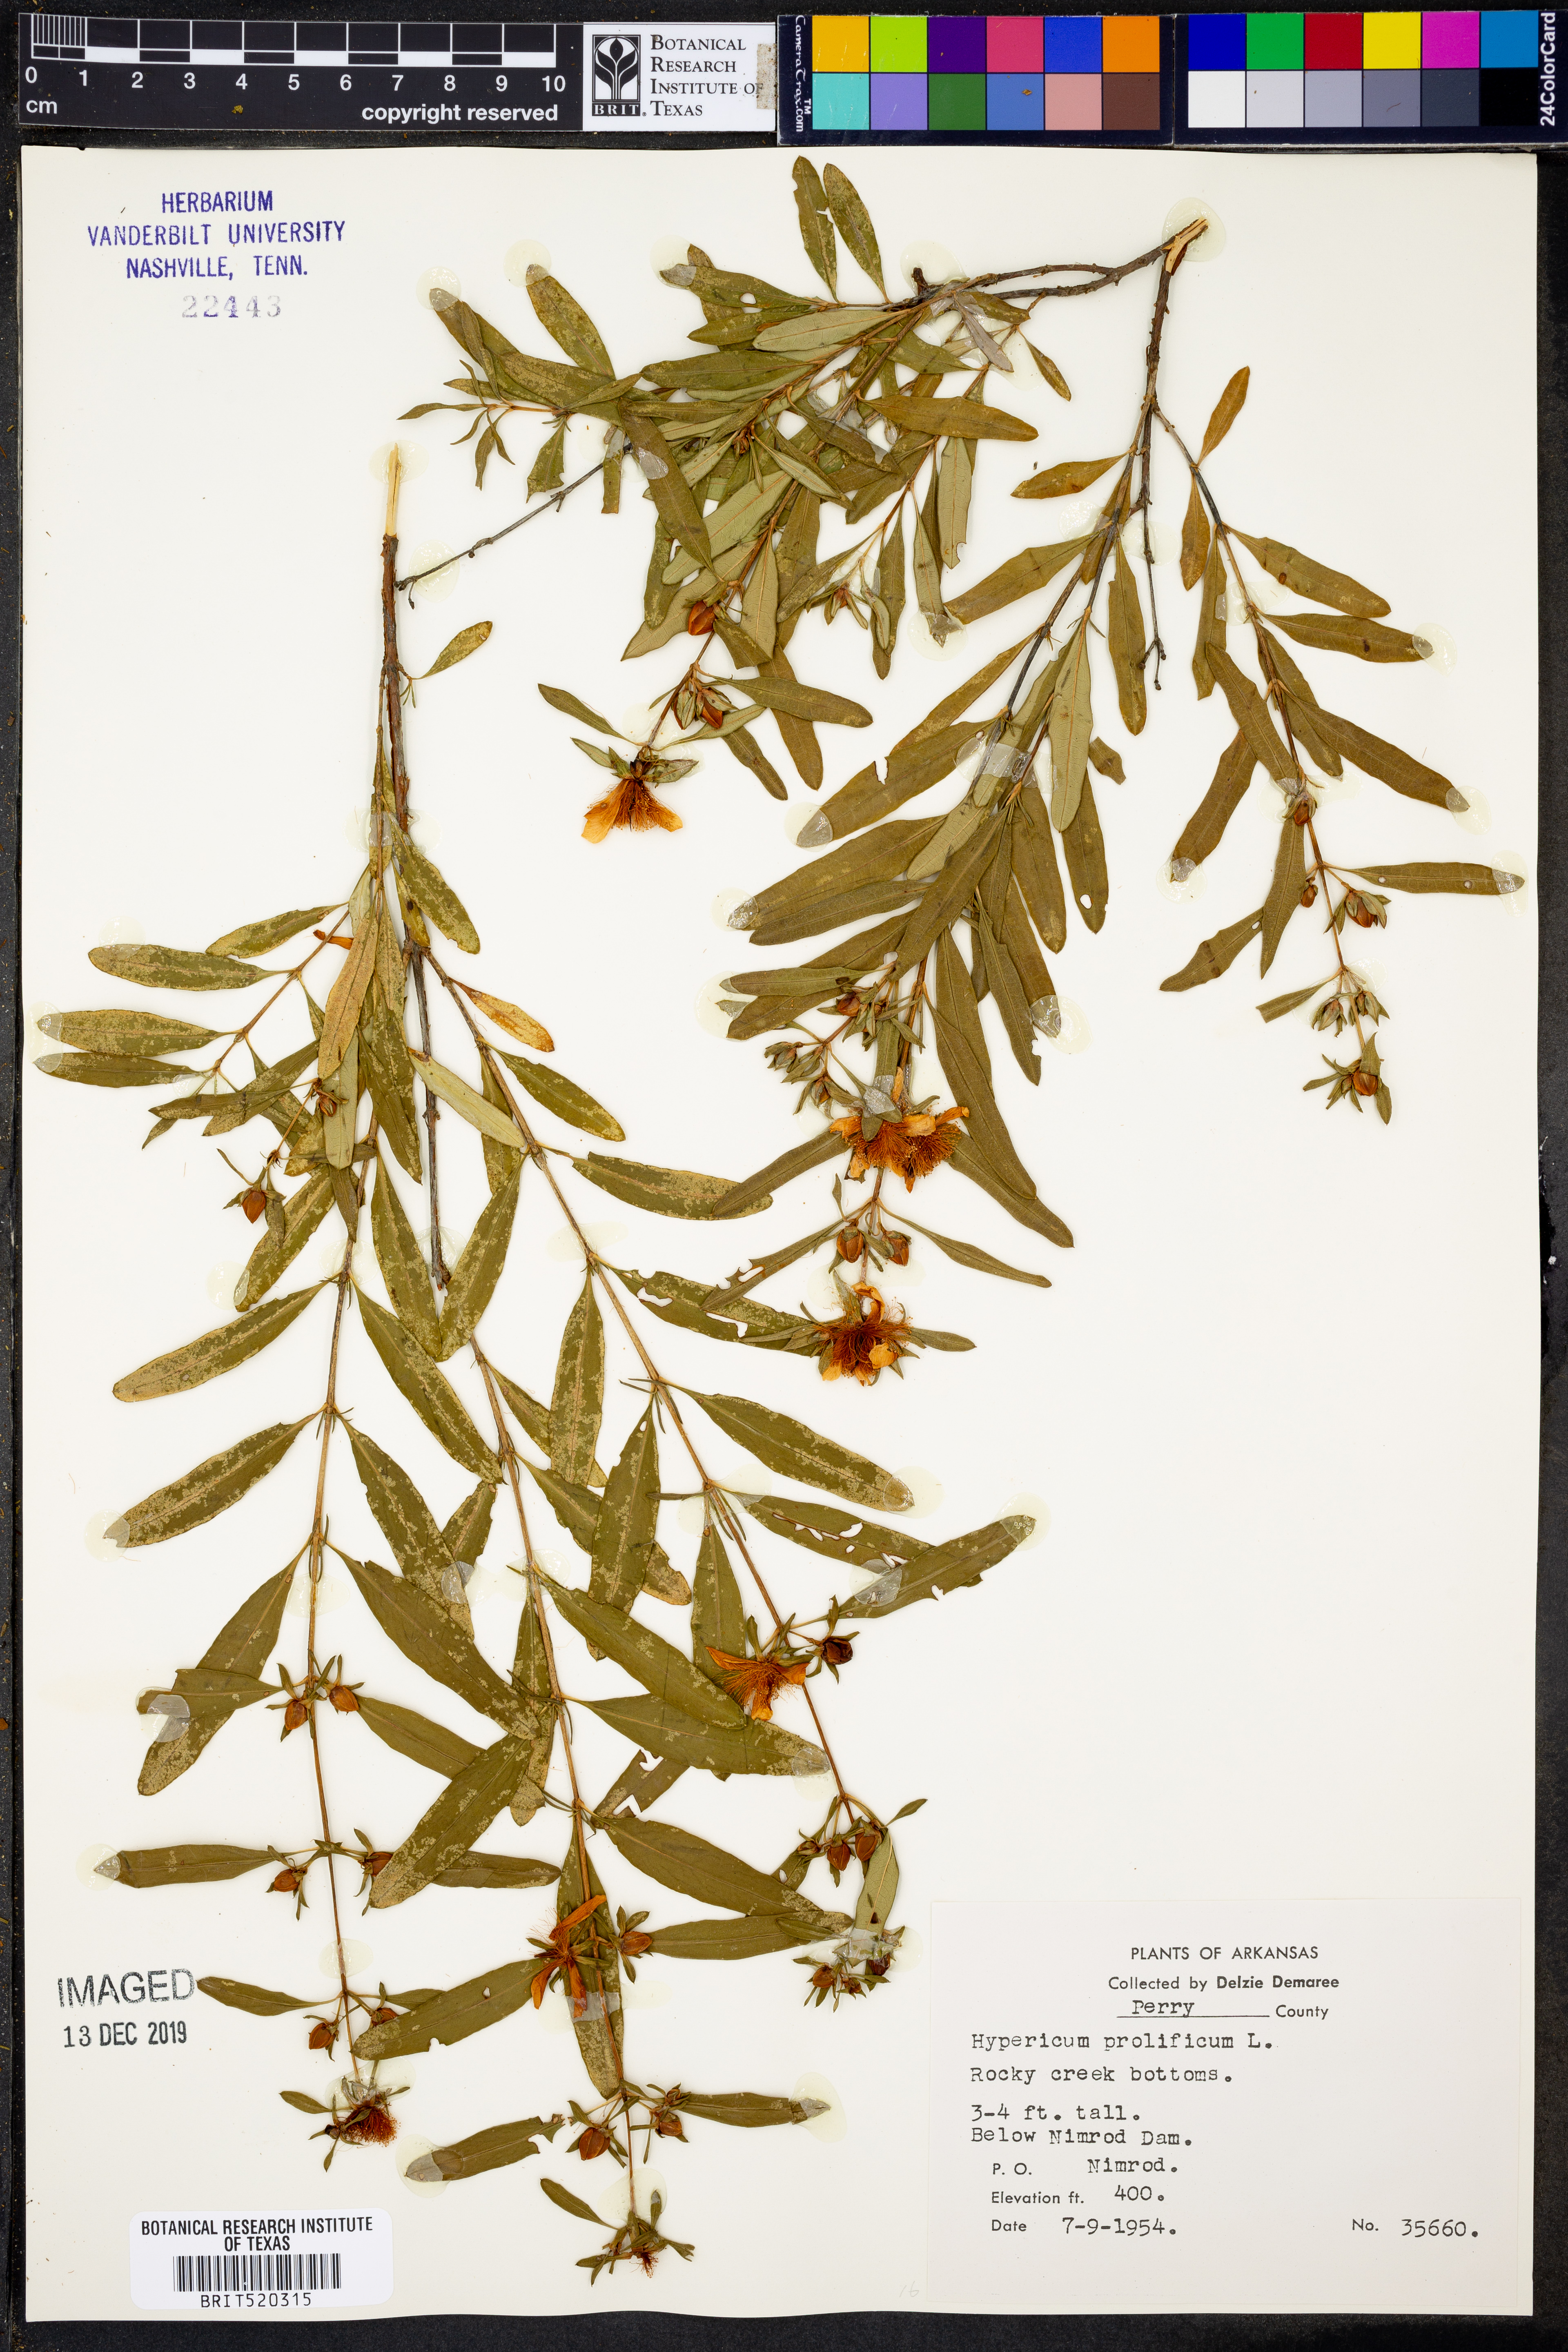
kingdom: Plantae
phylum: Tracheophyta
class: Magnoliopsida
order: Malpighiales
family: Hypericaceae
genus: Hypericum
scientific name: Hypericum prolificum
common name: Shrubby st. john's-wort
